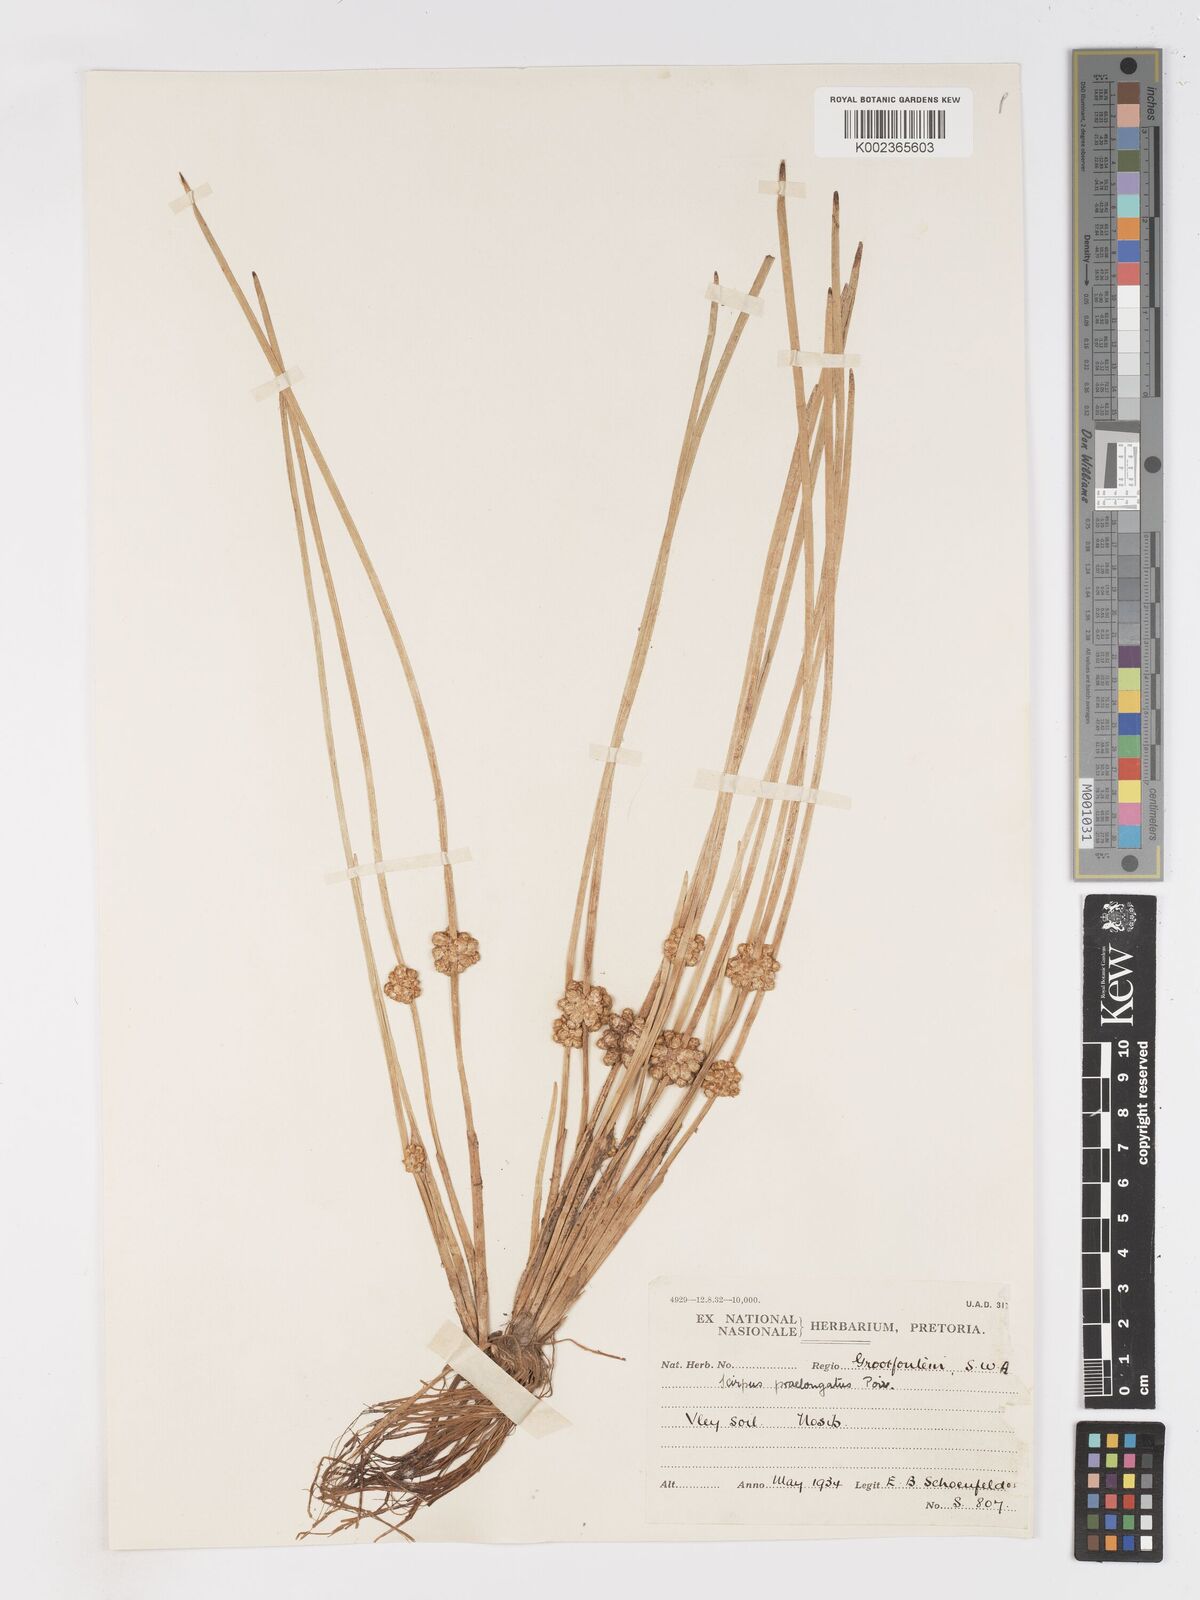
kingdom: Plantae
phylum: Tracheophyta
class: Liliopsida
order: Poales
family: Cyperaceae
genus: Schoenoplectiella
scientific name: Schoenoplectiella senegalensis
